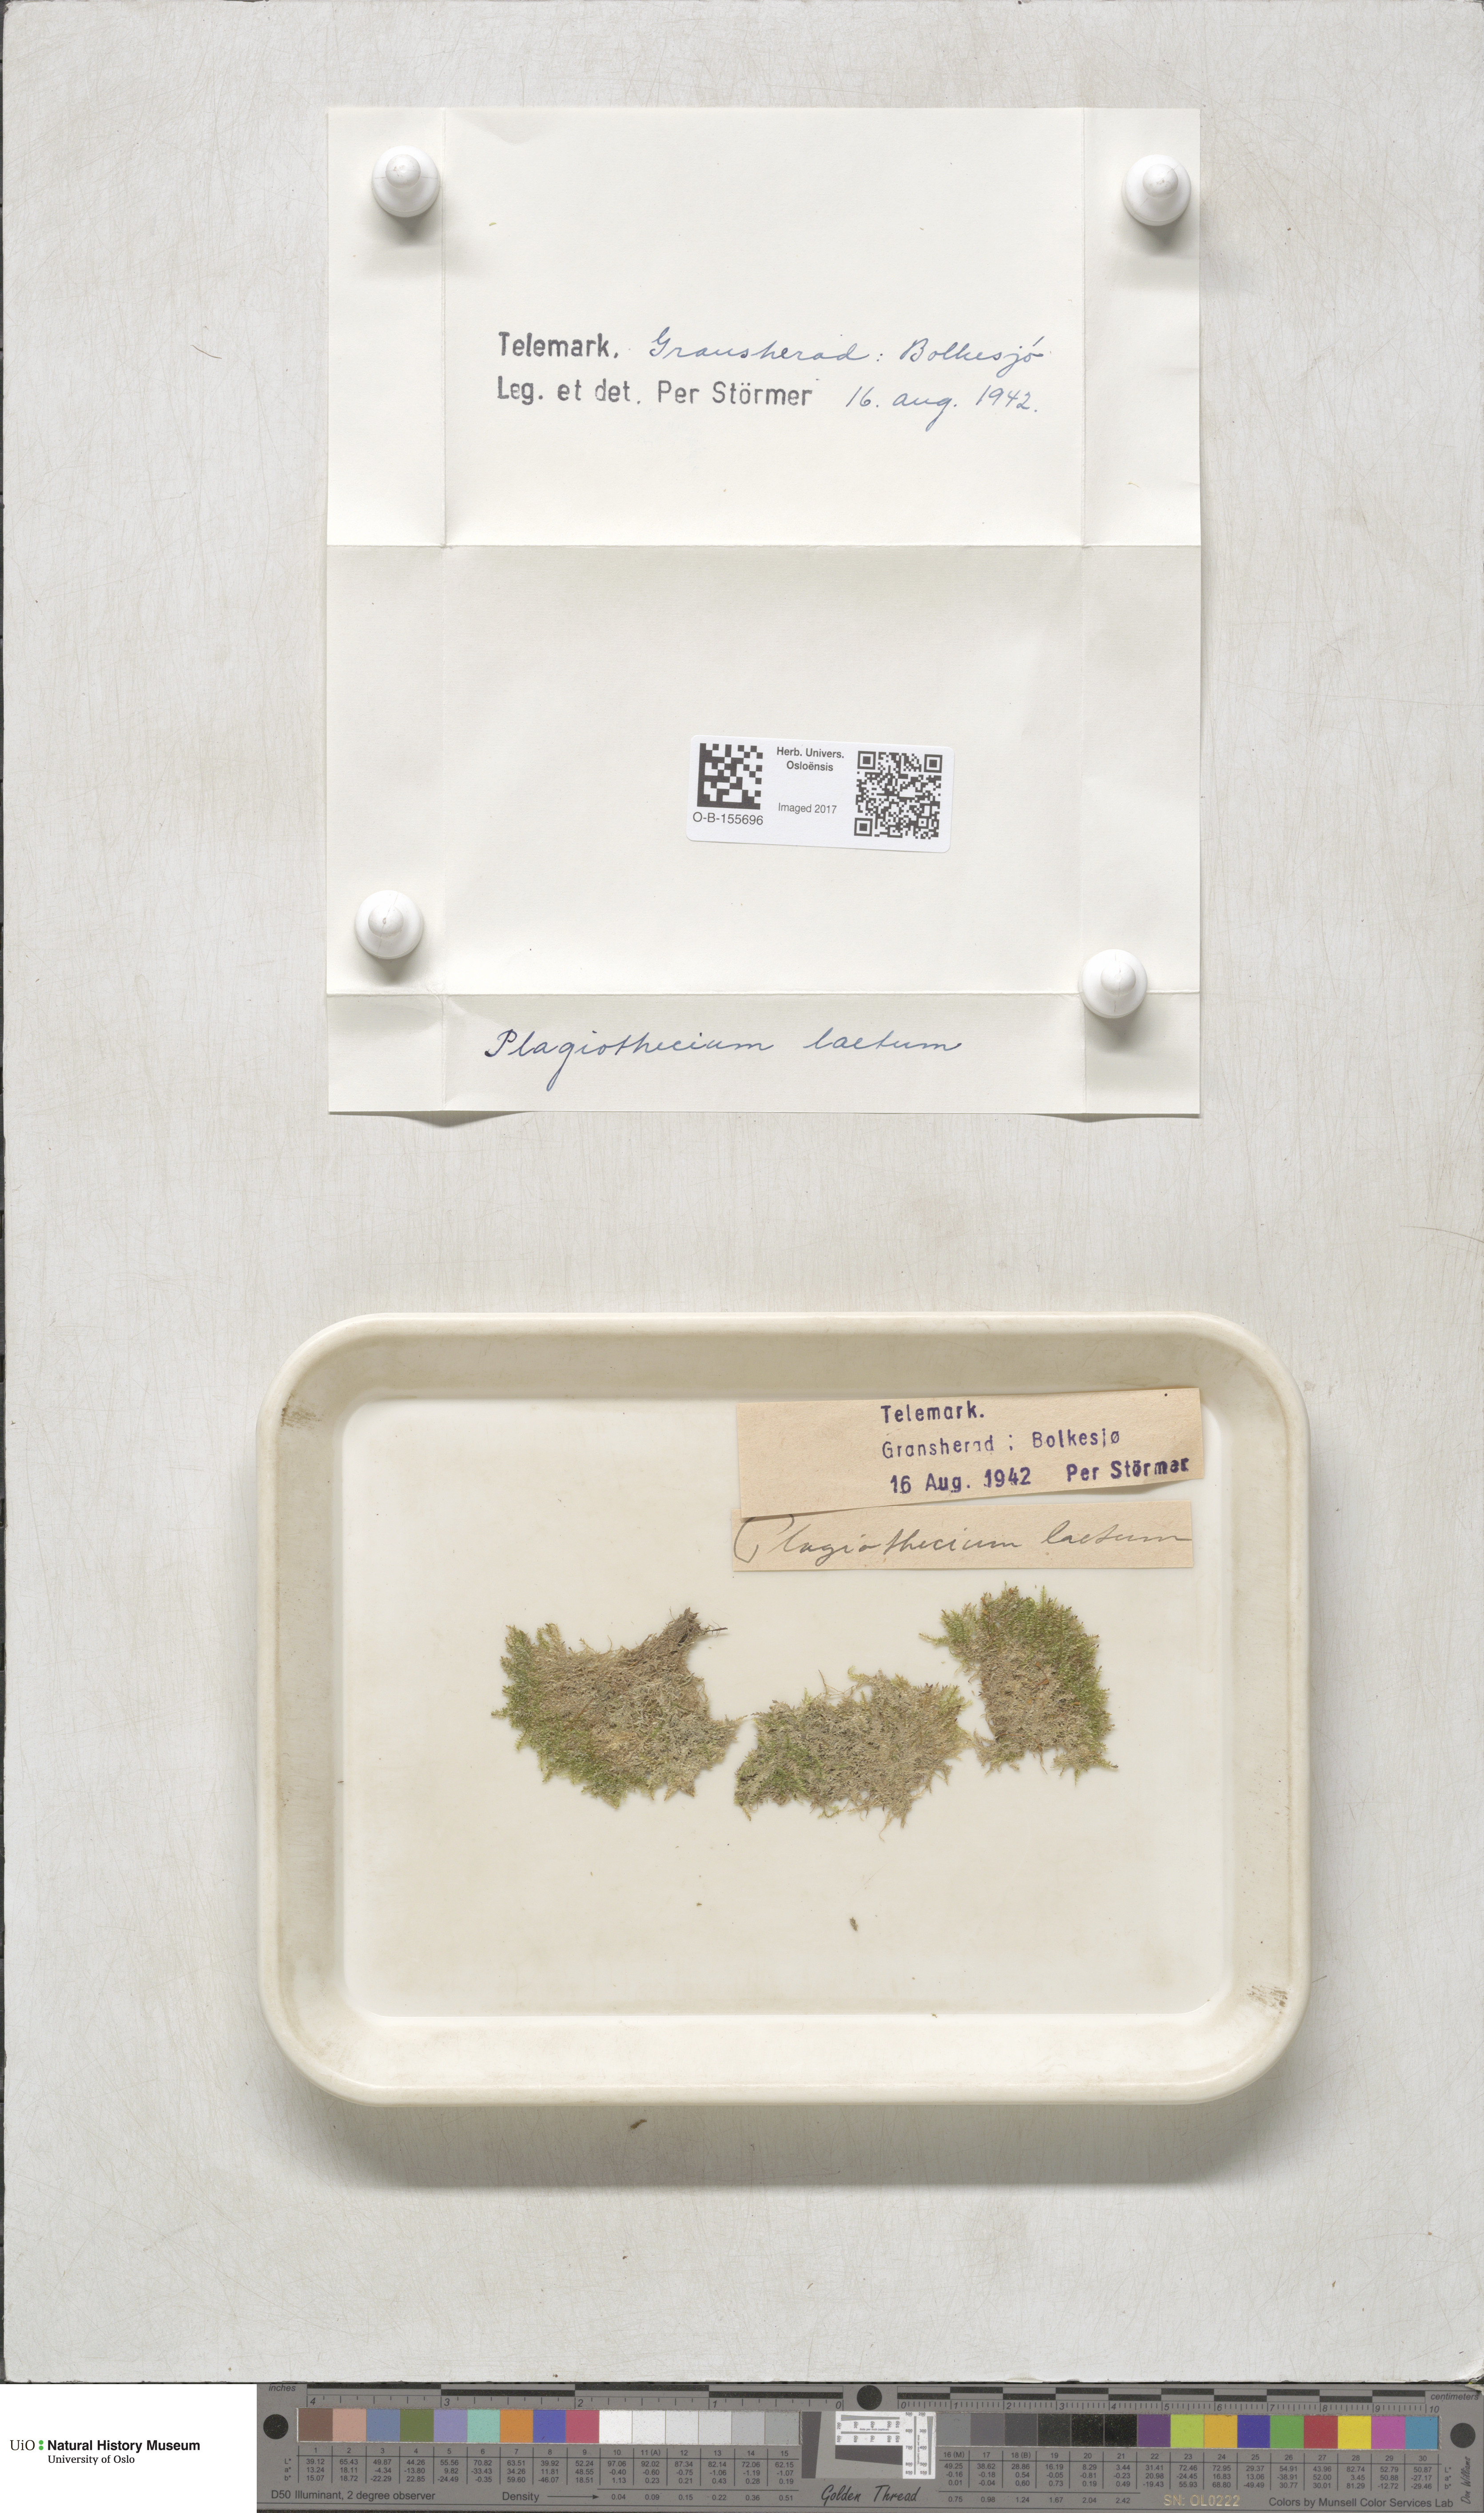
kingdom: Plantae
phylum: Bryophyta
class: Bryopsida
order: Hypnales
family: Plagiotheciaceae
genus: Plagiothecium
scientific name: Plagiothecium laetum
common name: Bright silk moss
